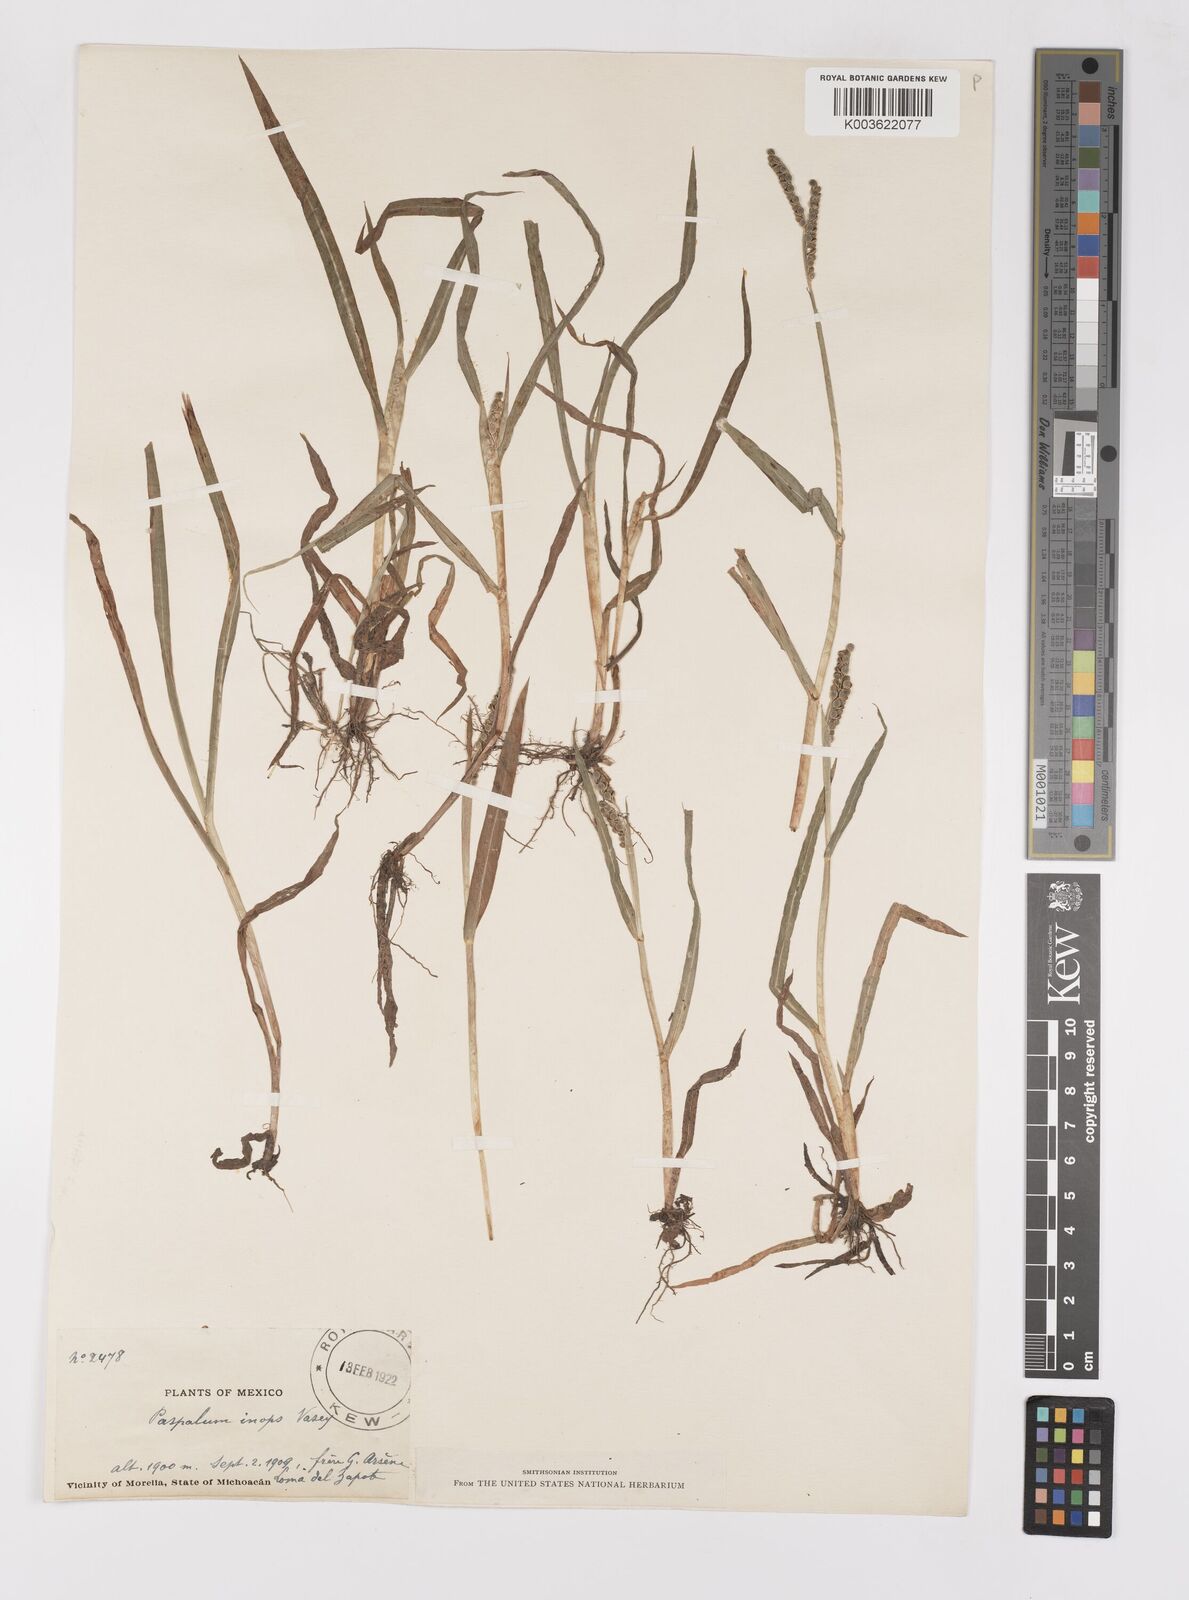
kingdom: Plantae
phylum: Tracheophyta
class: Liliopsida
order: Poales
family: Poaceae
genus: Paspalum
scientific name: Paspalum convexum
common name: Latin american crowngrass
